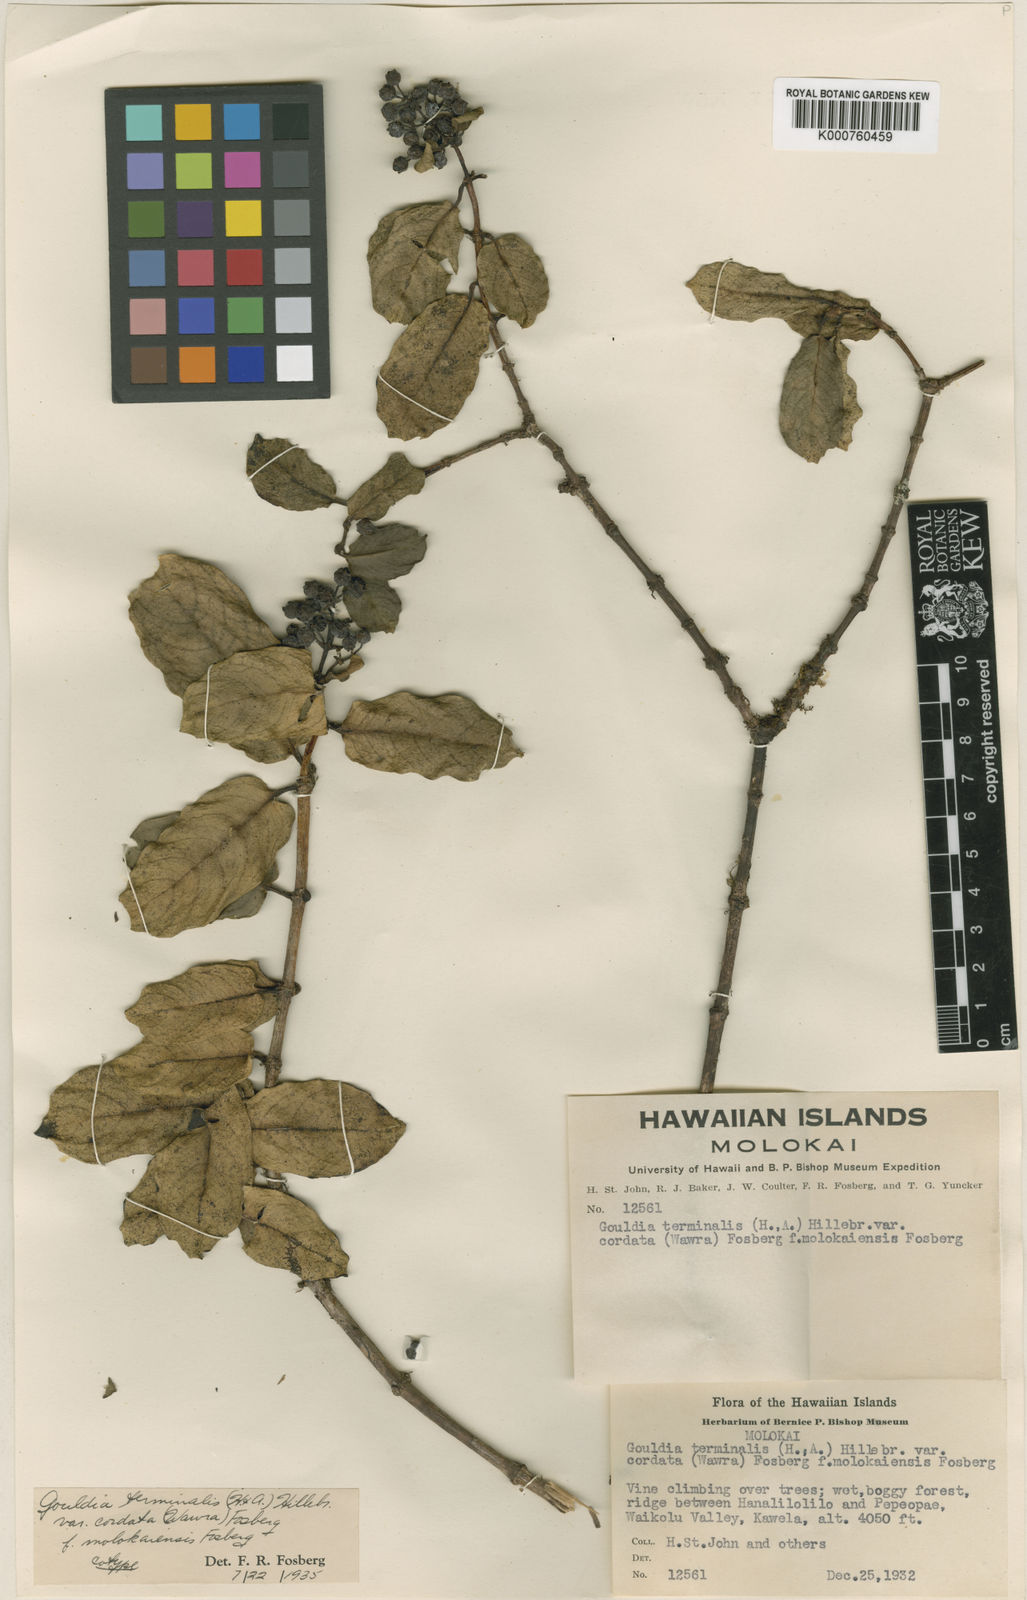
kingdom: Plantae
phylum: Tracheophyta
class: Magnoliopsida
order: Gentianales
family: Rubiaceae
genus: Kadua
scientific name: Kadua affinis
